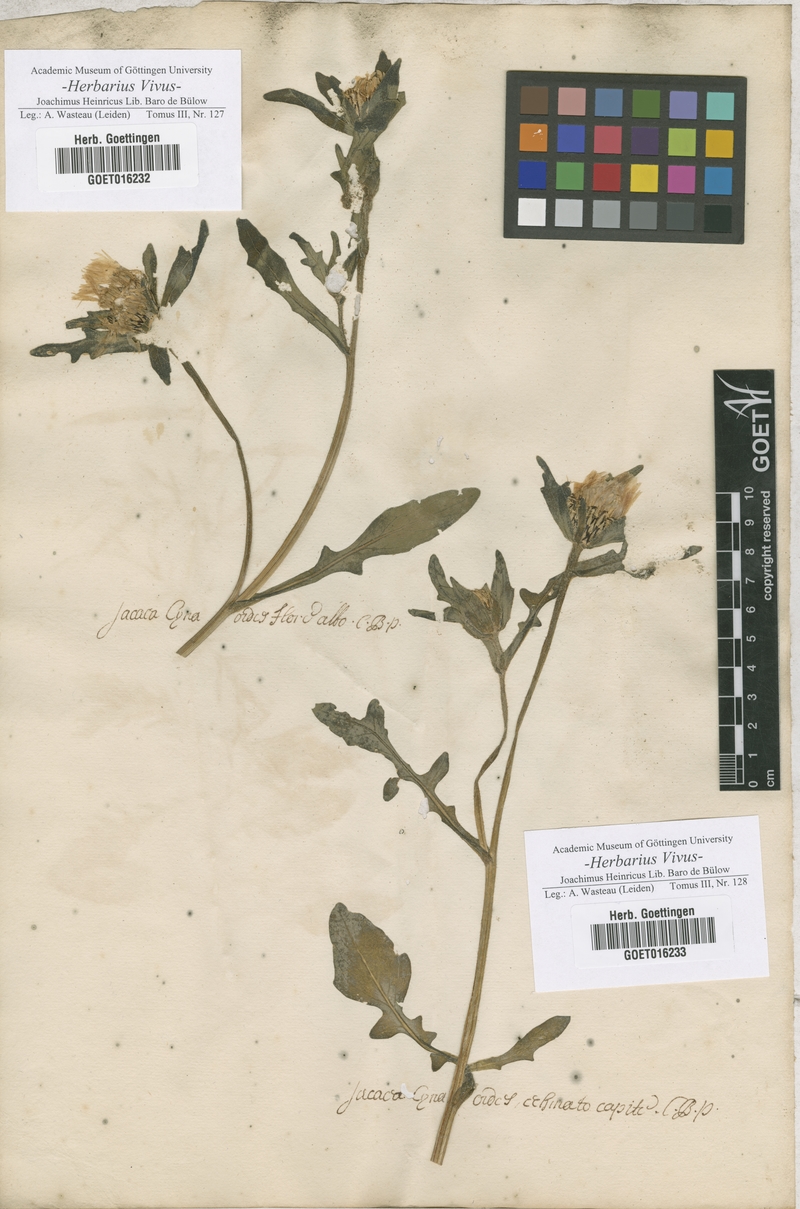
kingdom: Plantae
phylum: Tracheophyta
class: Magnoliopsida
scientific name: Magnoliopsida
